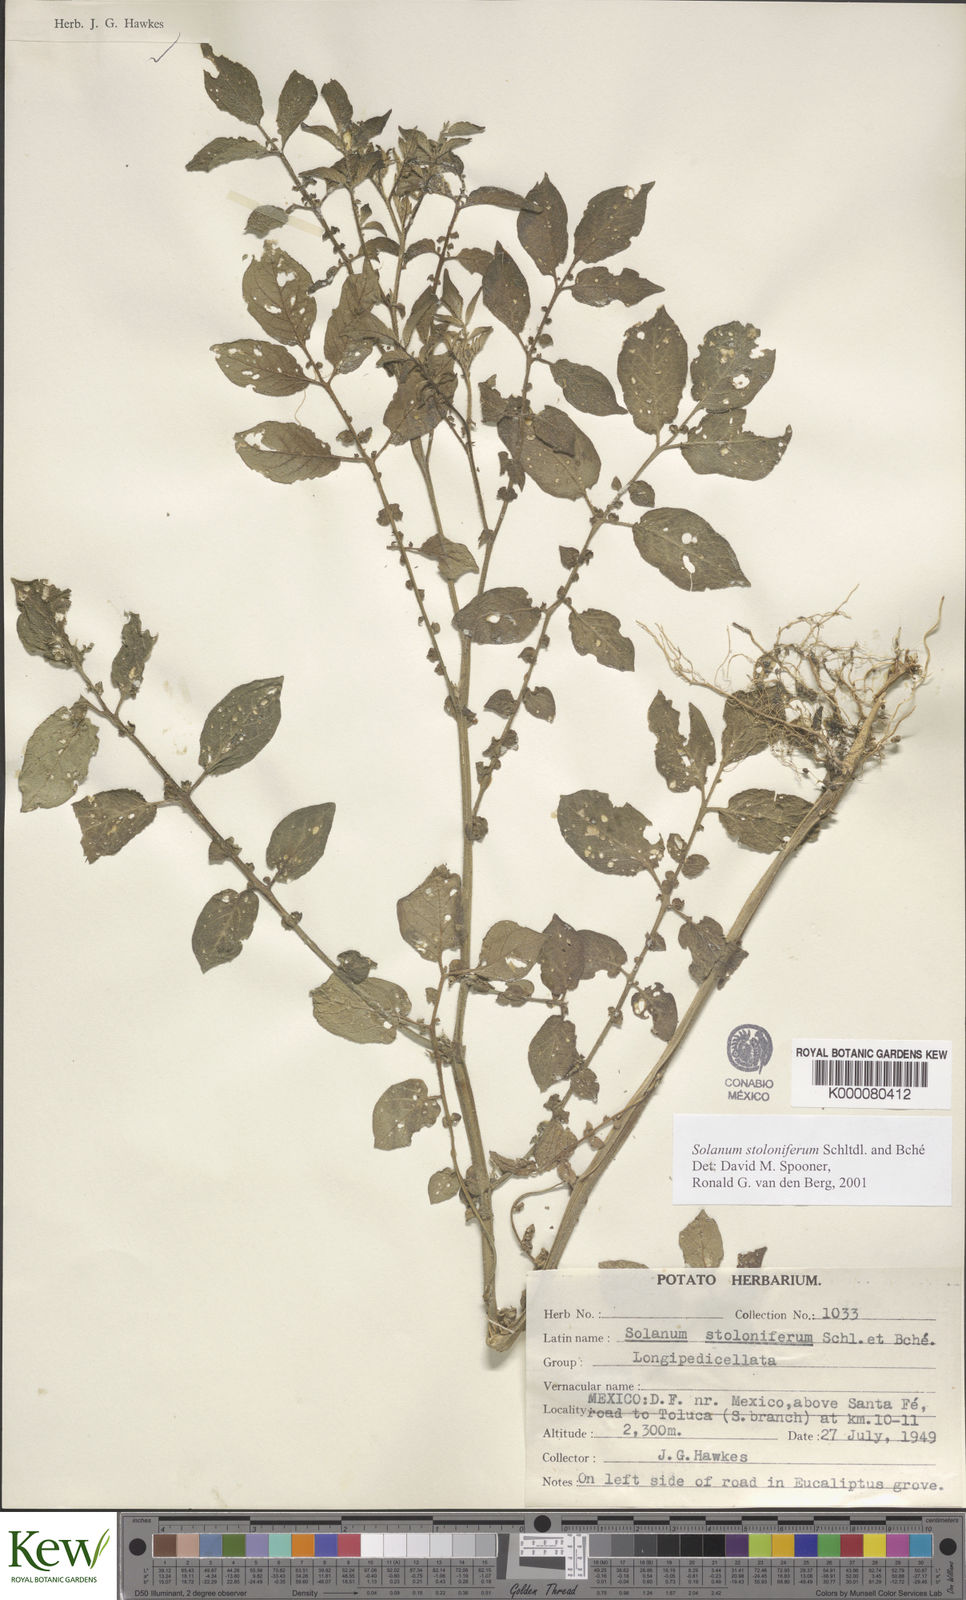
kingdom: Plantae
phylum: Tracheophyta
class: Magnoliopsida
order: Solanales
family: Solanaceae
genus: Solanum
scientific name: Solanum stoloniferum
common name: Fendler's nighshade
